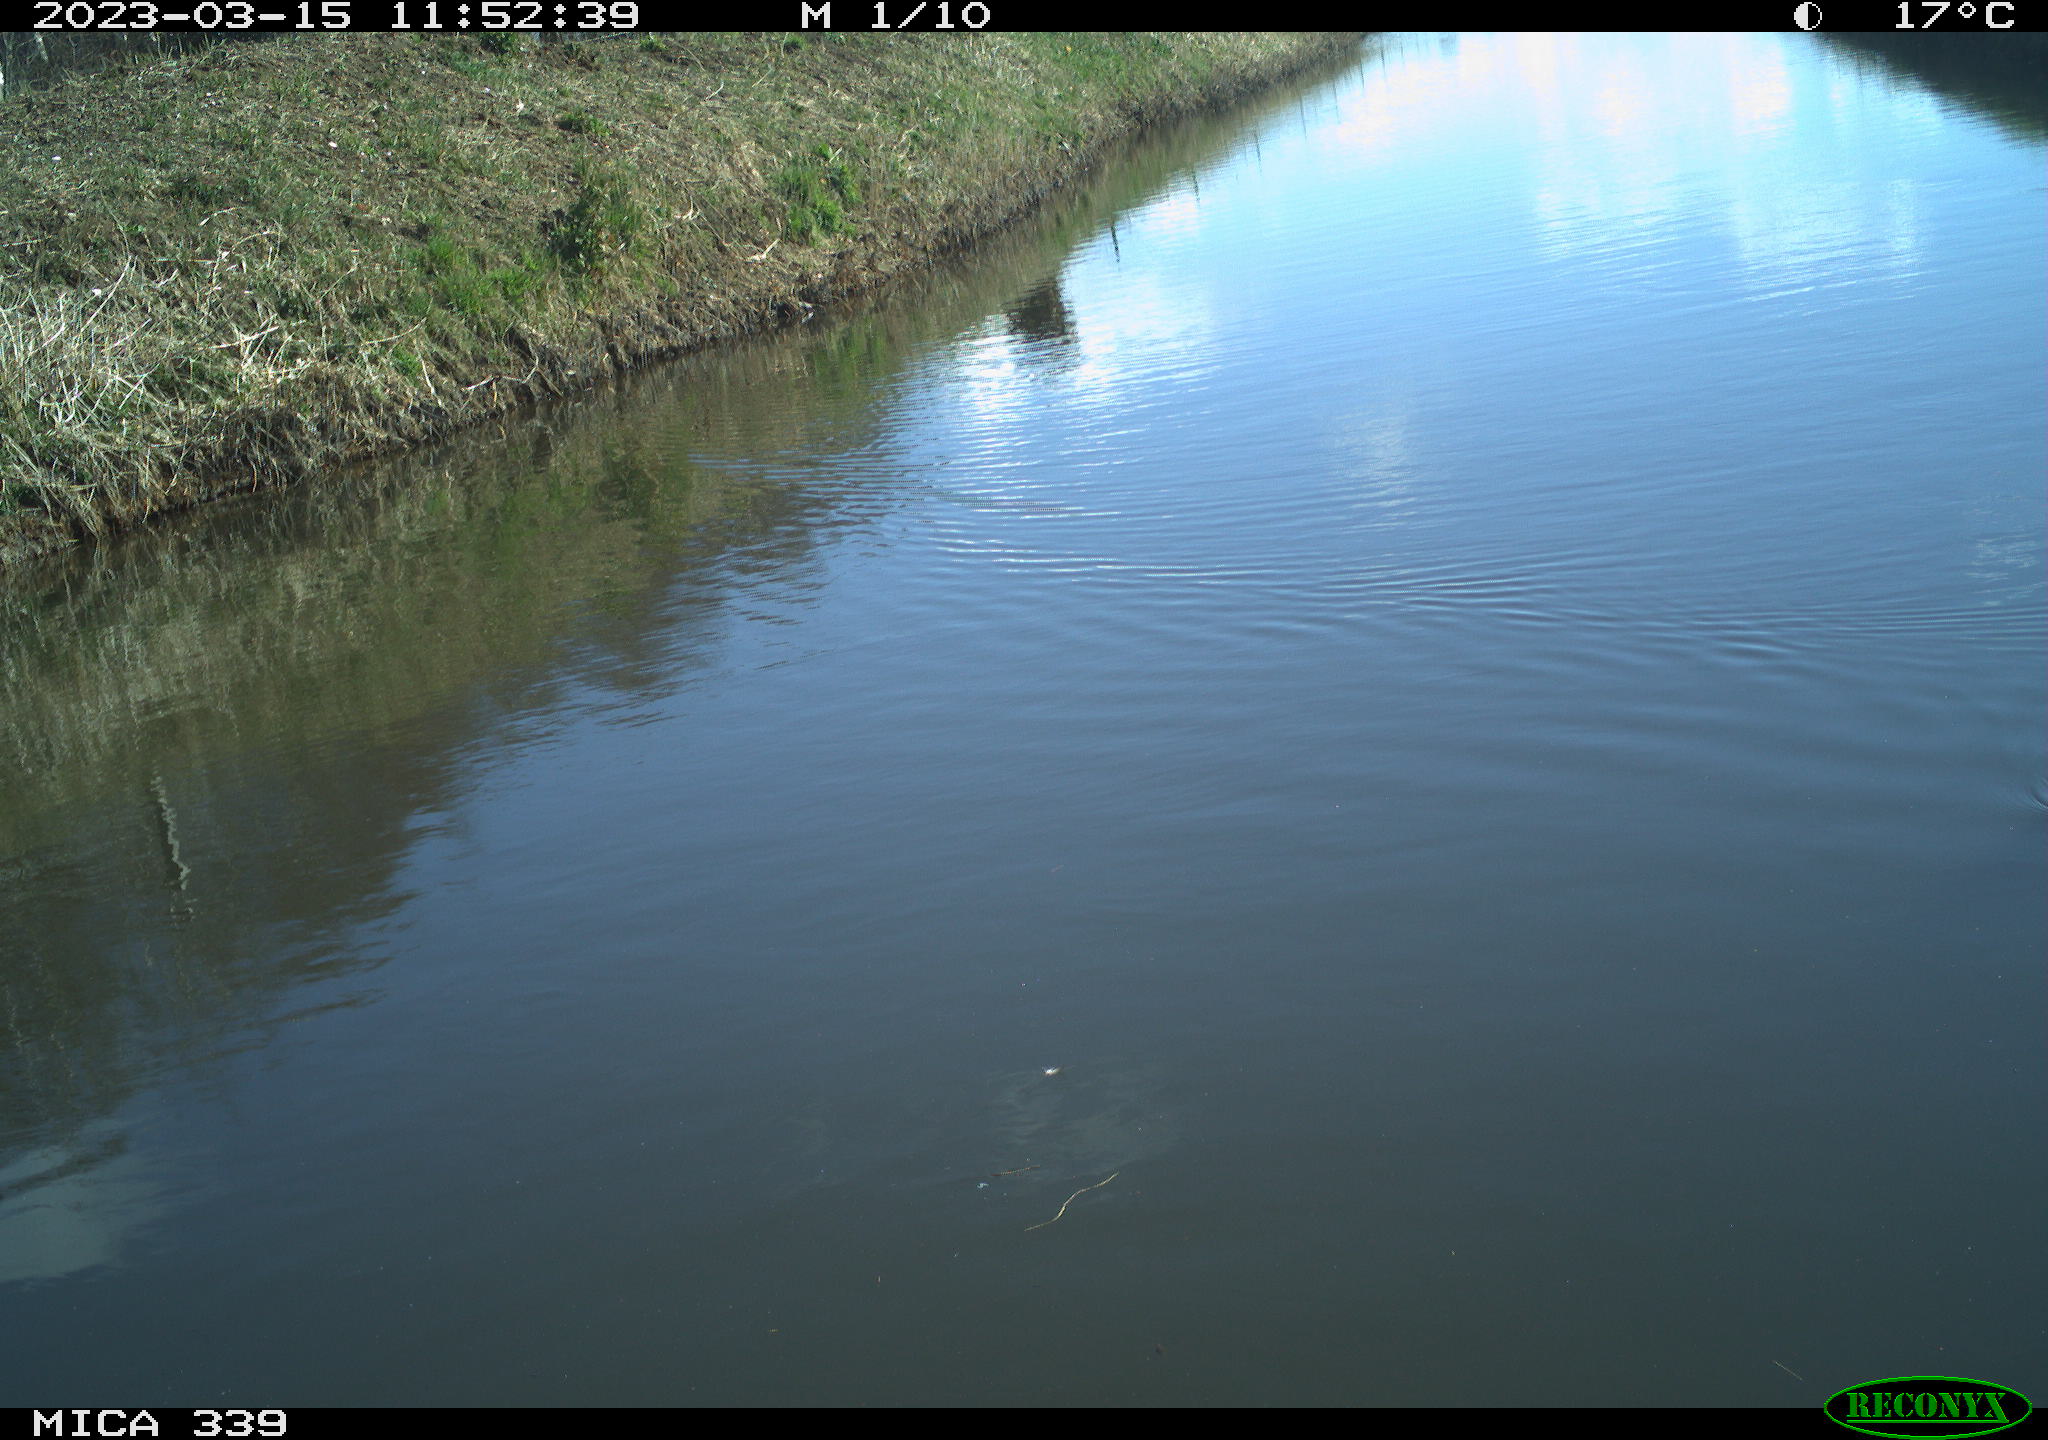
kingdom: Animalia
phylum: Chordata
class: Aves
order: Gruiformes
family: Rallidae
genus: Fulica
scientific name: Fulica atra
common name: Eurasian coot
